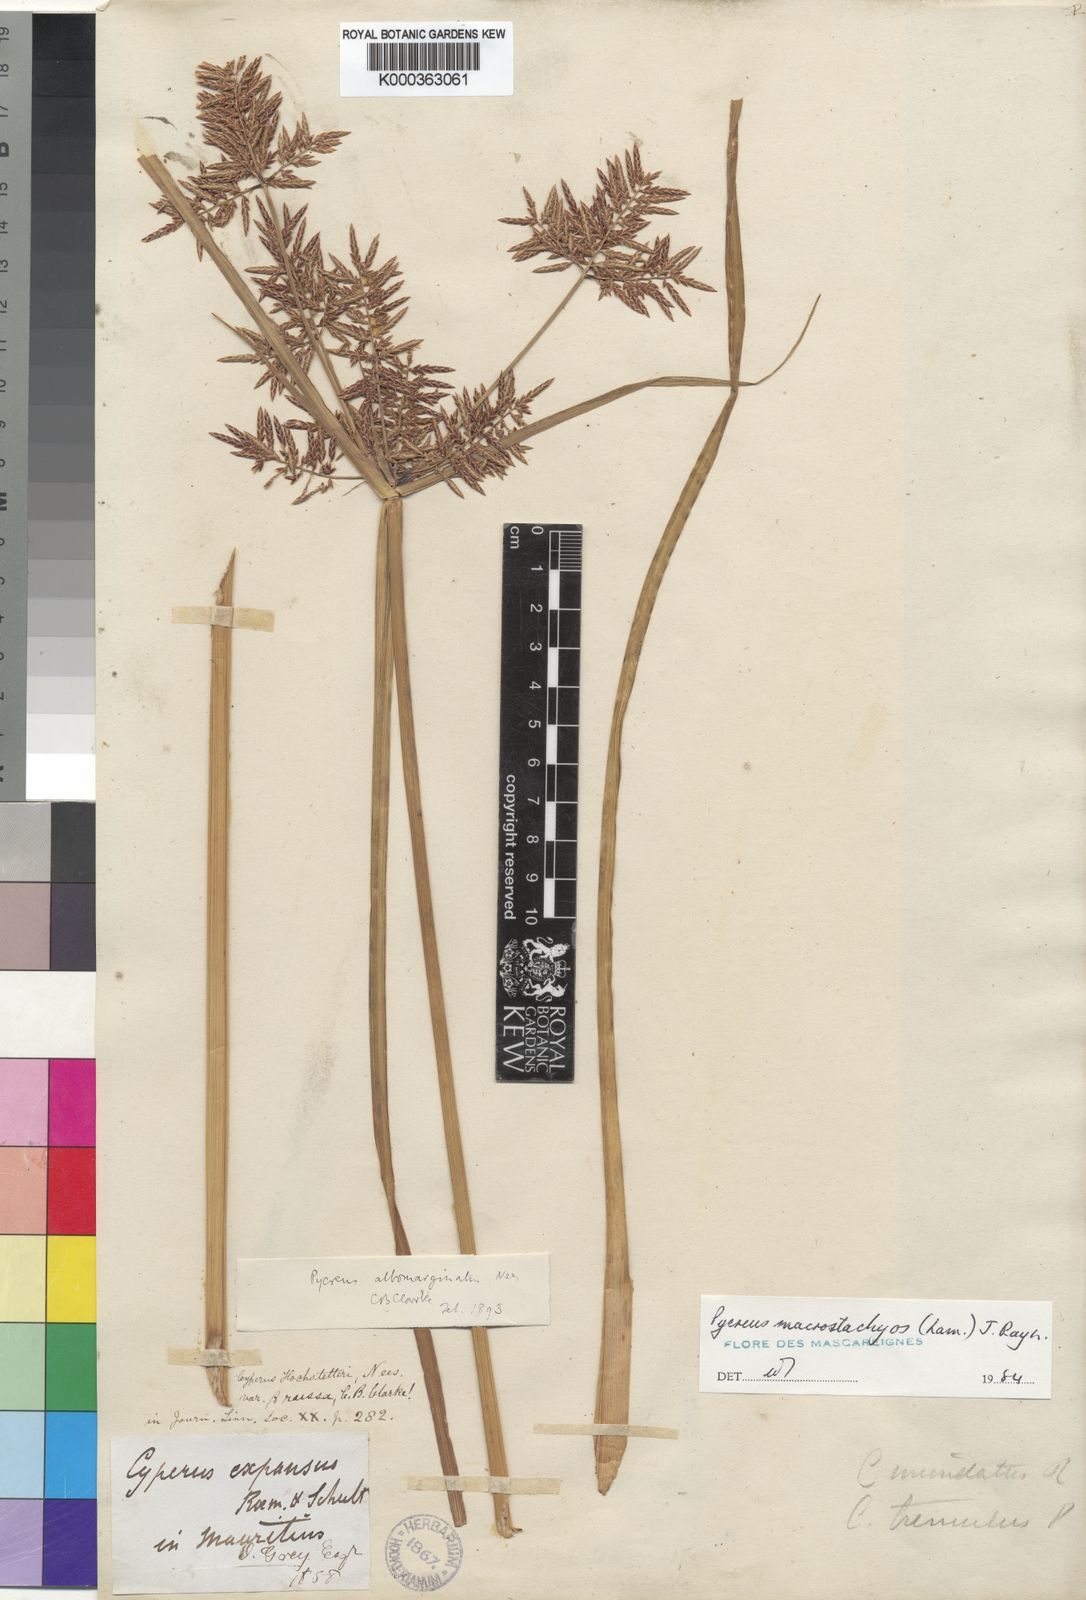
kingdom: Plantae
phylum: Tracheophyta
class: Liliopsida
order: Poales
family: Cyperaceae
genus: Cyperus
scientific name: Cyperus macrostachyos
